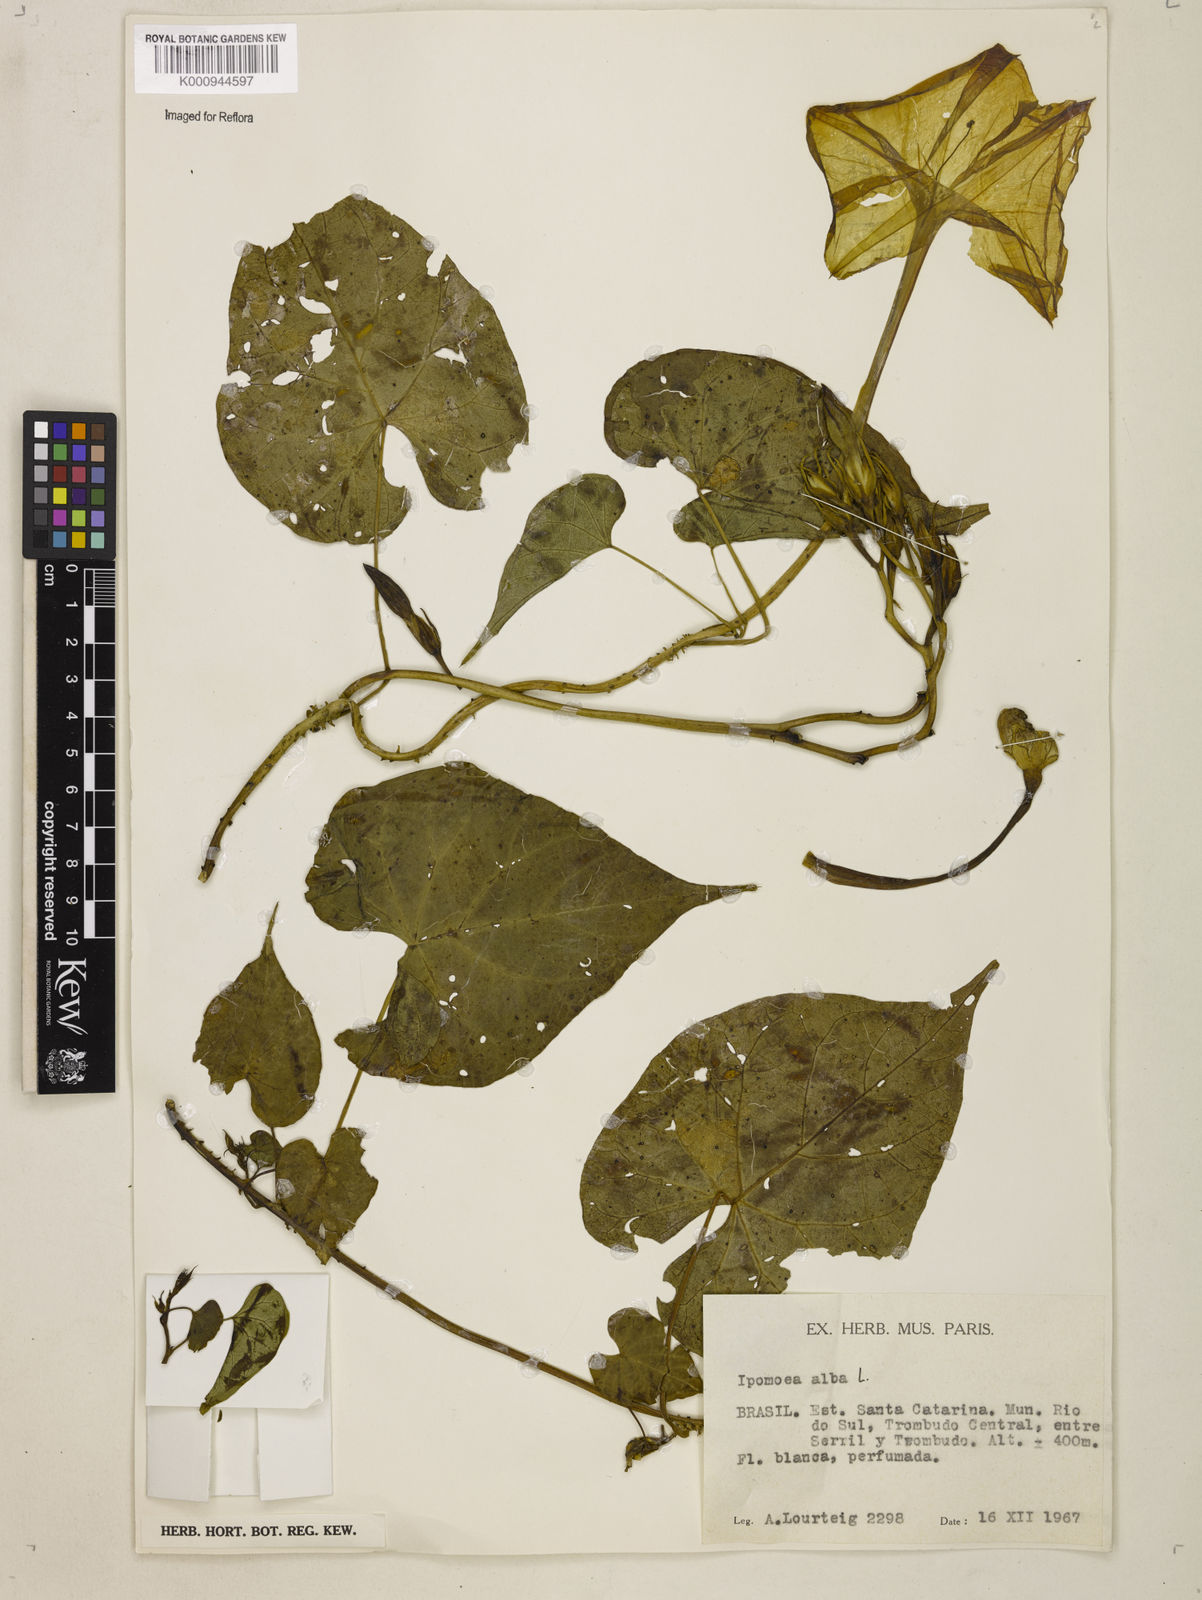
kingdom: Plantae
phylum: Tracheophyta
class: Magnoliopsida
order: Solanales
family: Convolvulaceae
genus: Ipomoea
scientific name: Ipomoea
